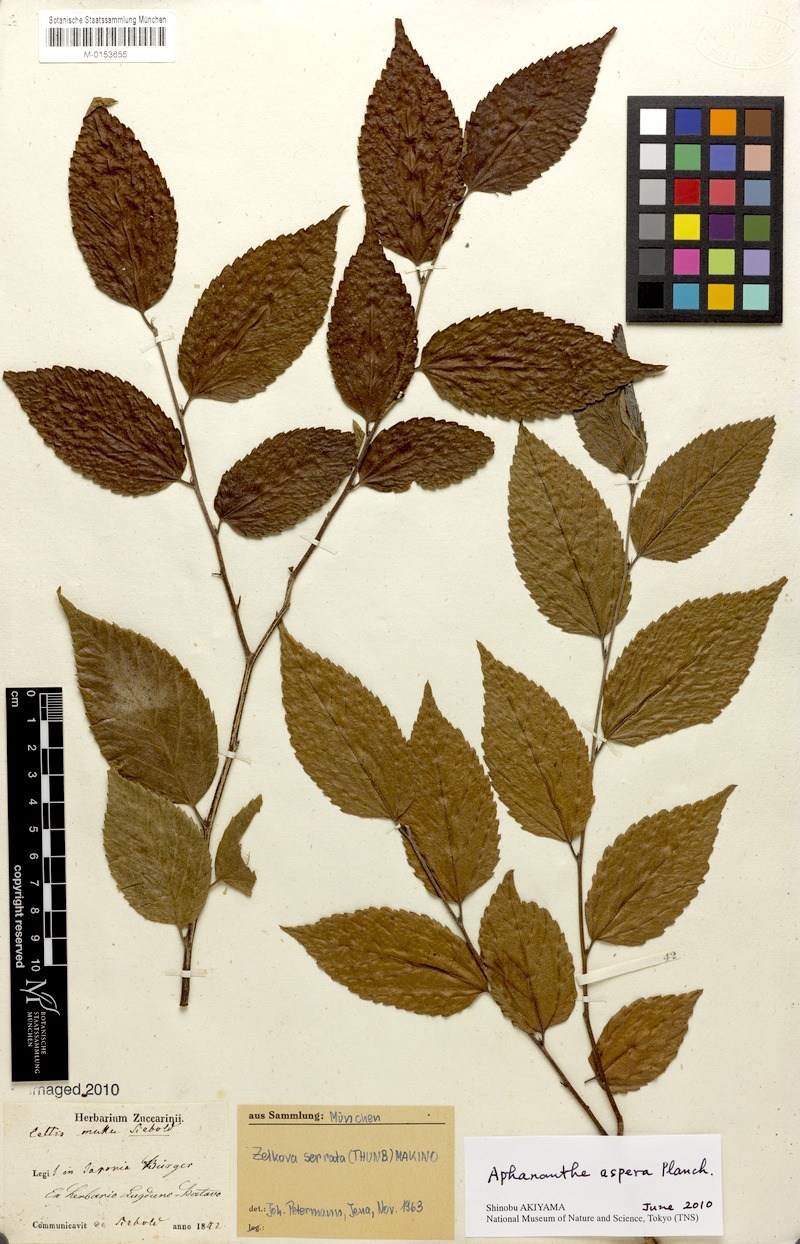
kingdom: Plantae
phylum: Tracheophyta
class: Magnoliopsida
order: Rosales
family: Cannabaceae
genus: Aphananthe
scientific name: Aphananthe aspera
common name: Mukutree
